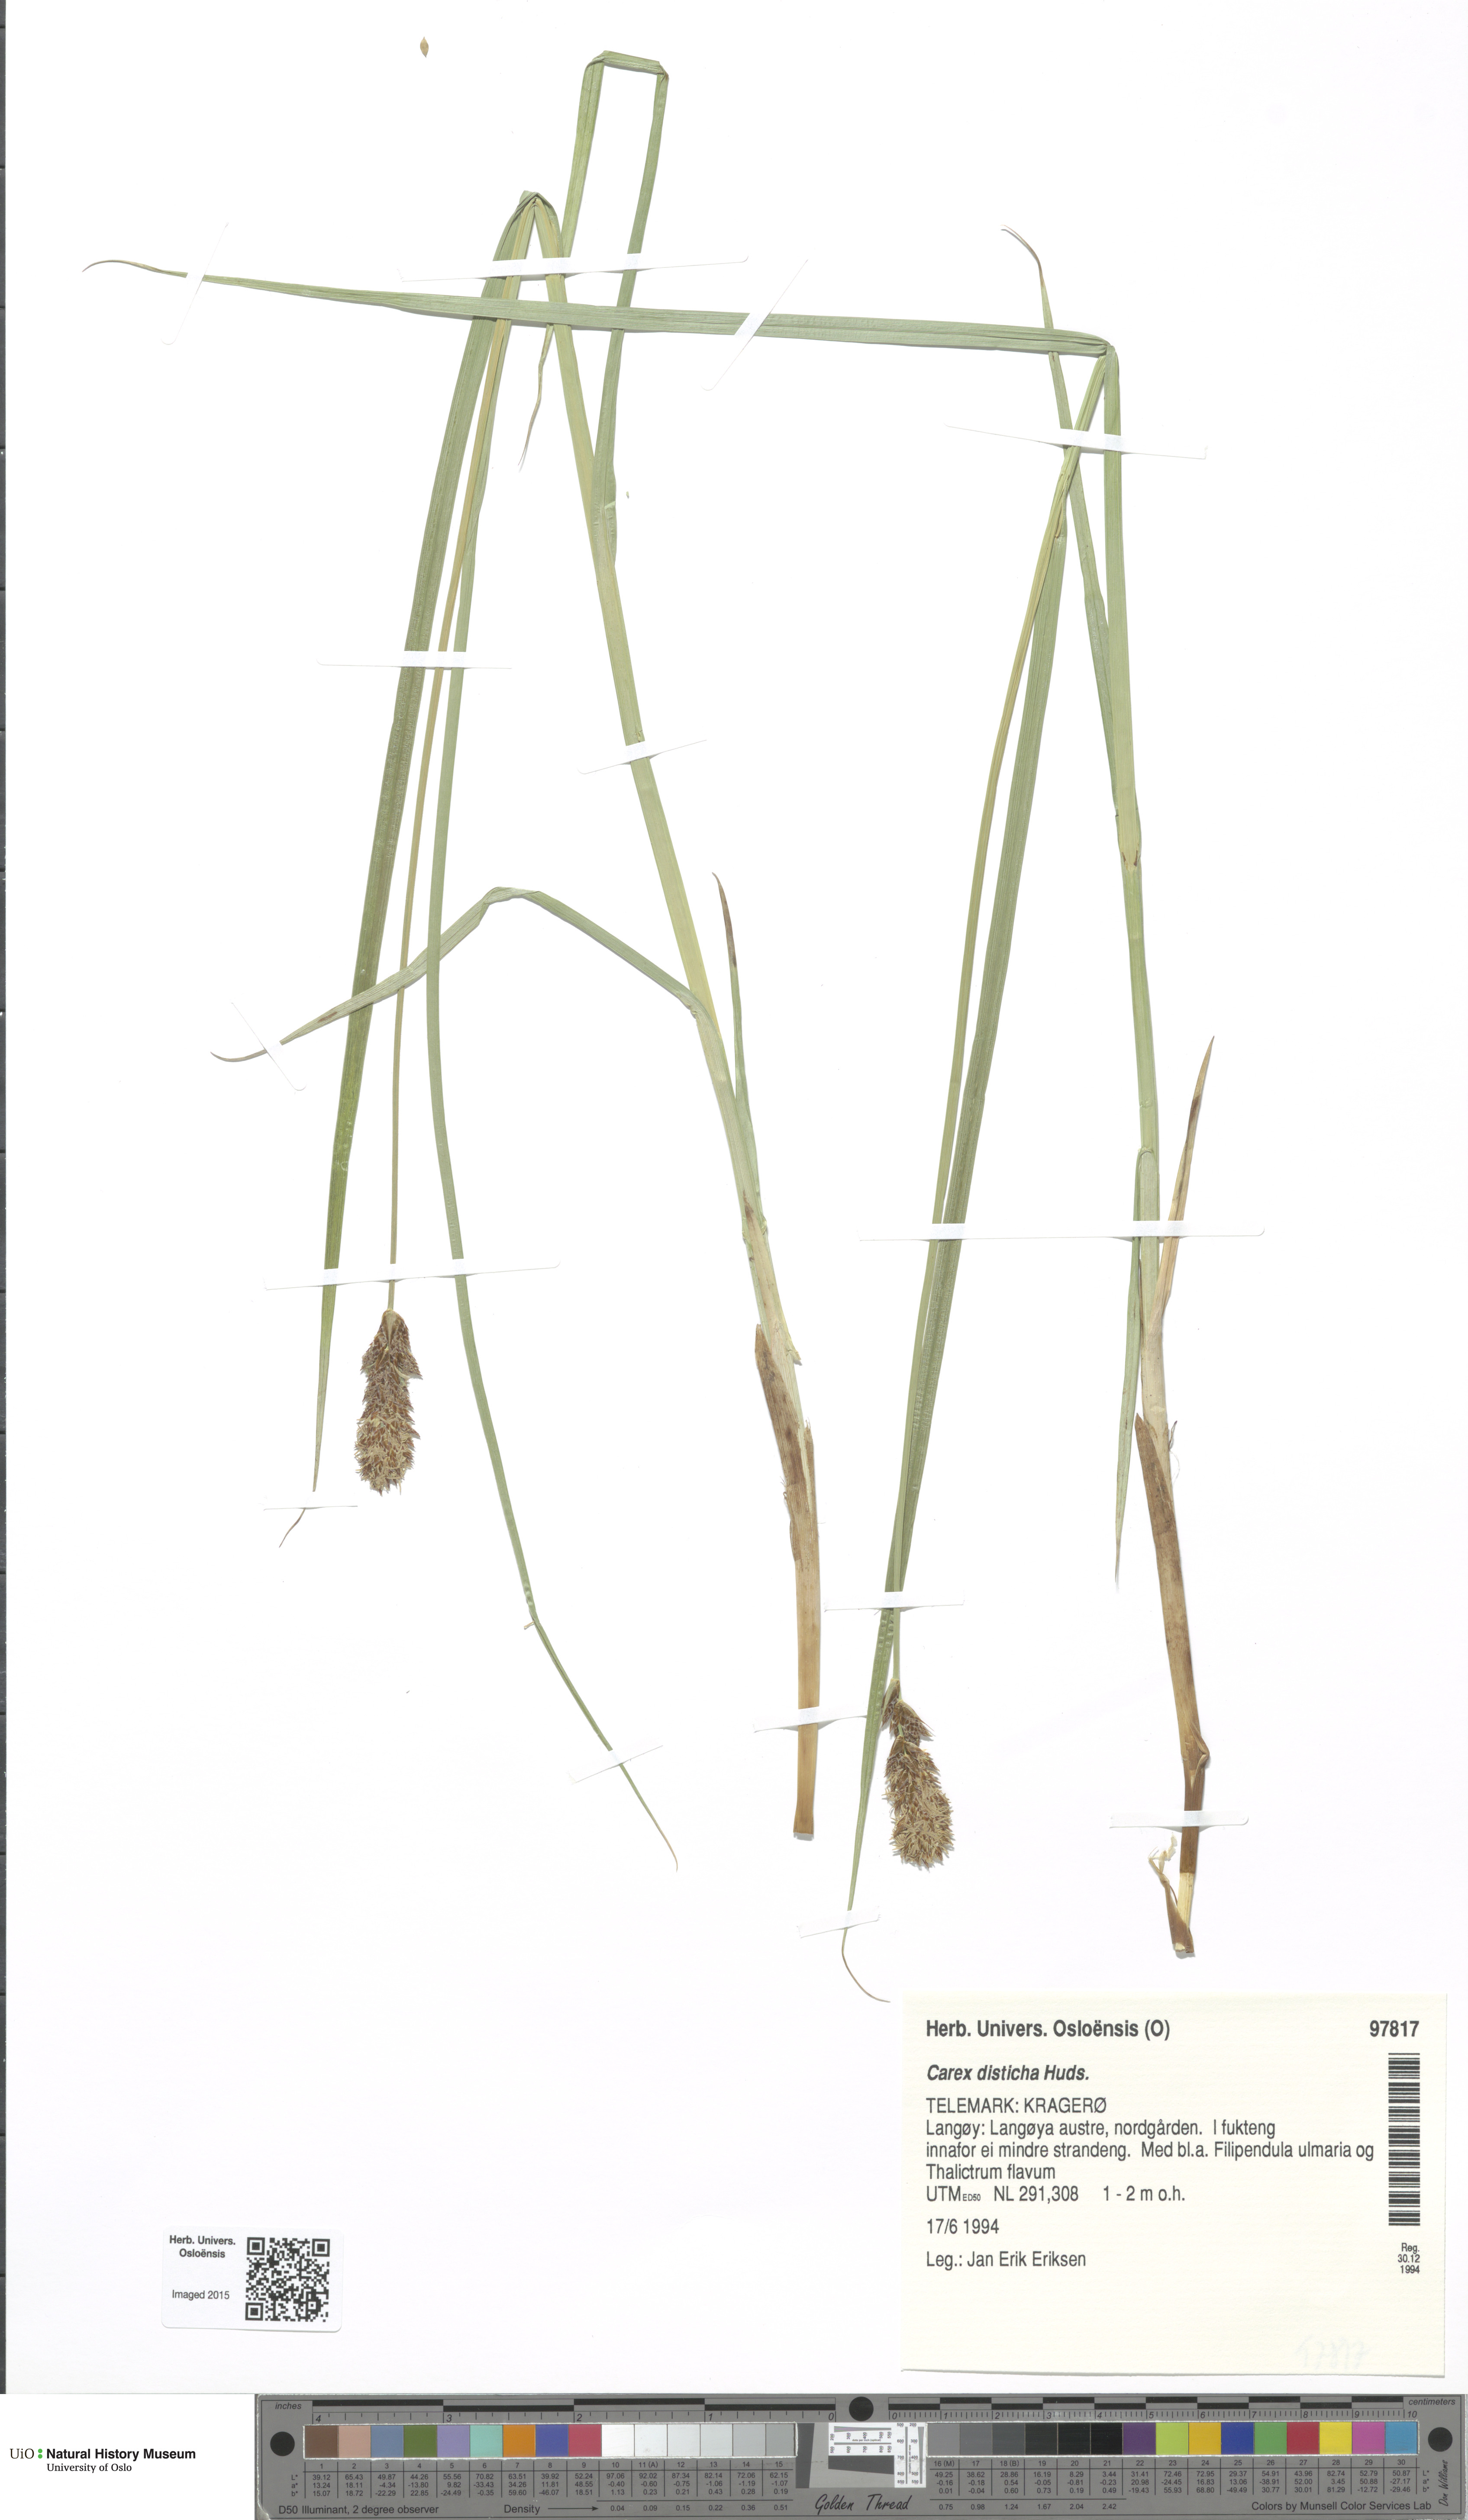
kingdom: Plantae
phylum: Tracheophyta
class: Liliopsida
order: Poales
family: Cyperaceae
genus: Carex
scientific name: Carex disticha
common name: Brown sedge
